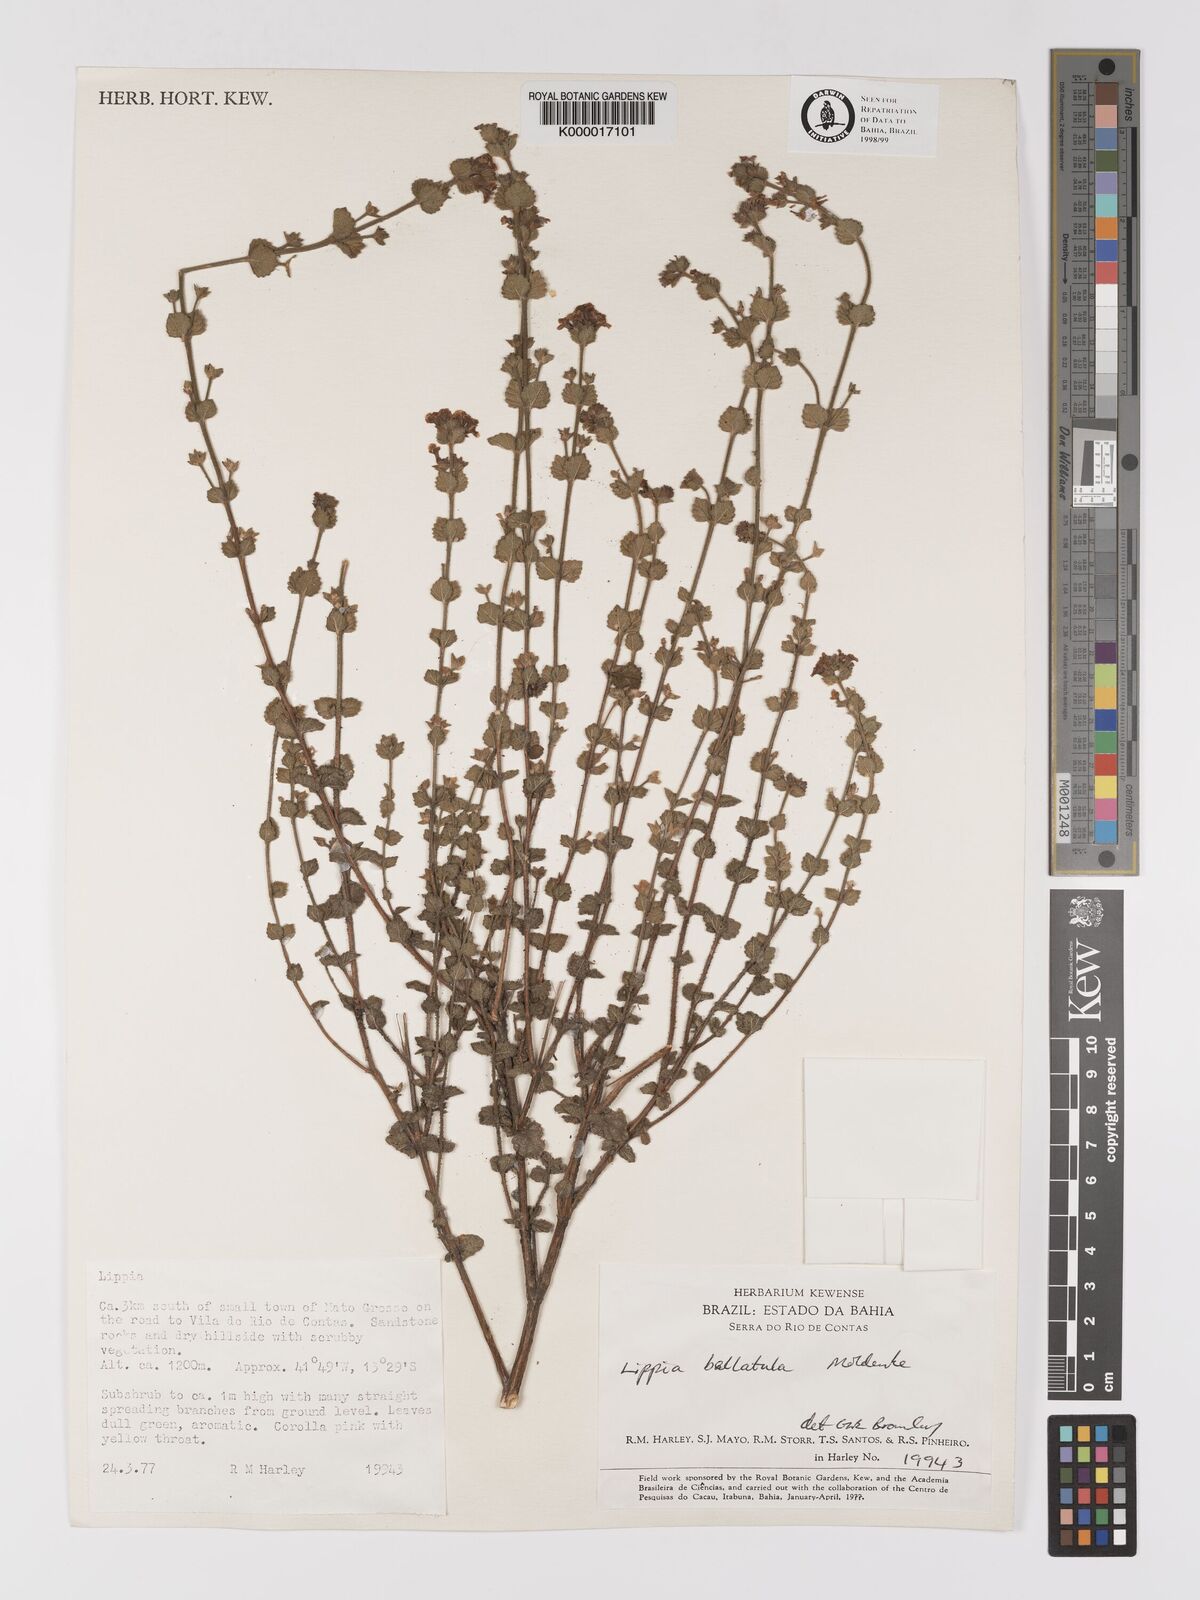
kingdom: Plantae
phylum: Tracheophyta
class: Magnoliopsida
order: Lamiales
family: Verbenaceae
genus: Lippia
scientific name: Lippia bellatula
